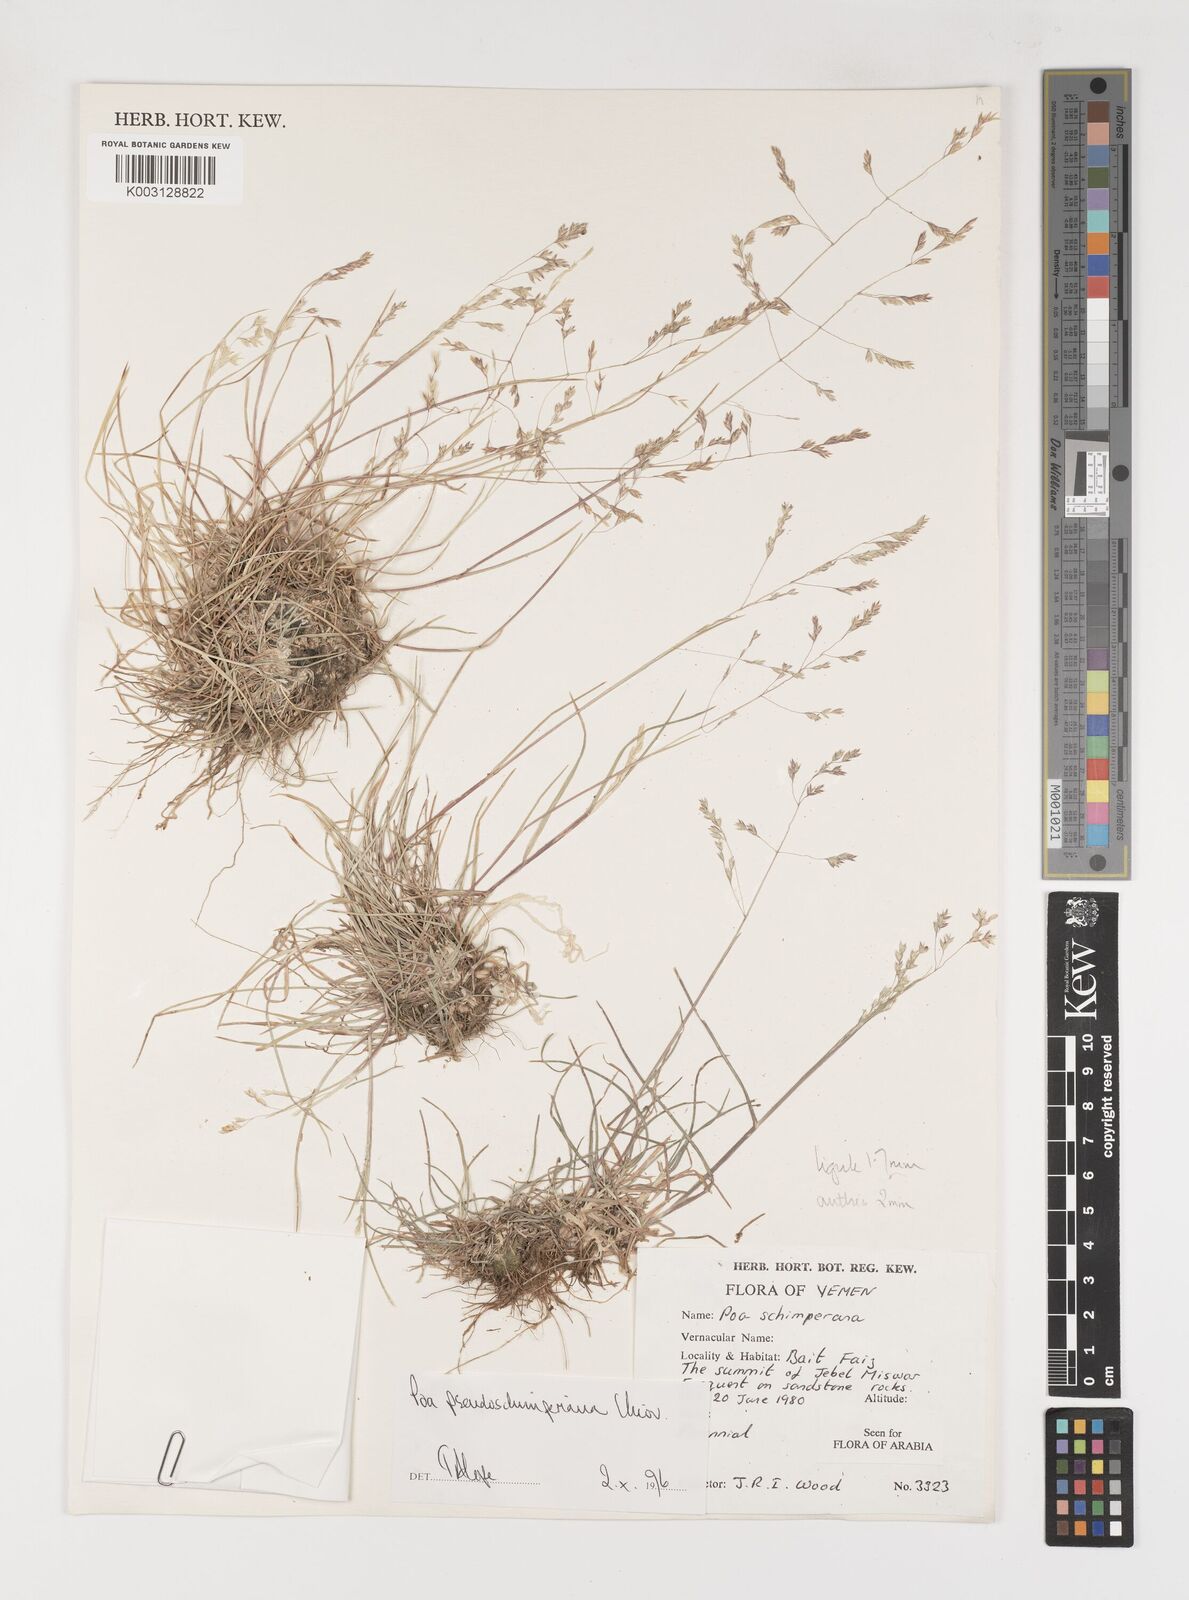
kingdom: Plantae
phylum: Tracheophyta
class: Liliopsida
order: Poales
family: Poaceae
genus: Poa
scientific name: Poa pseudoschimperiana
